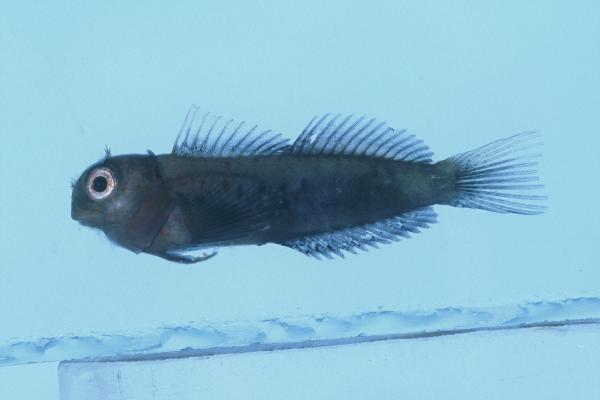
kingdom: Animalia
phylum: Chordata
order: Perciformes
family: Blenniidae
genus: Cirripectes
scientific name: Cirripectes filamentosus
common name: Filamentous blenny
